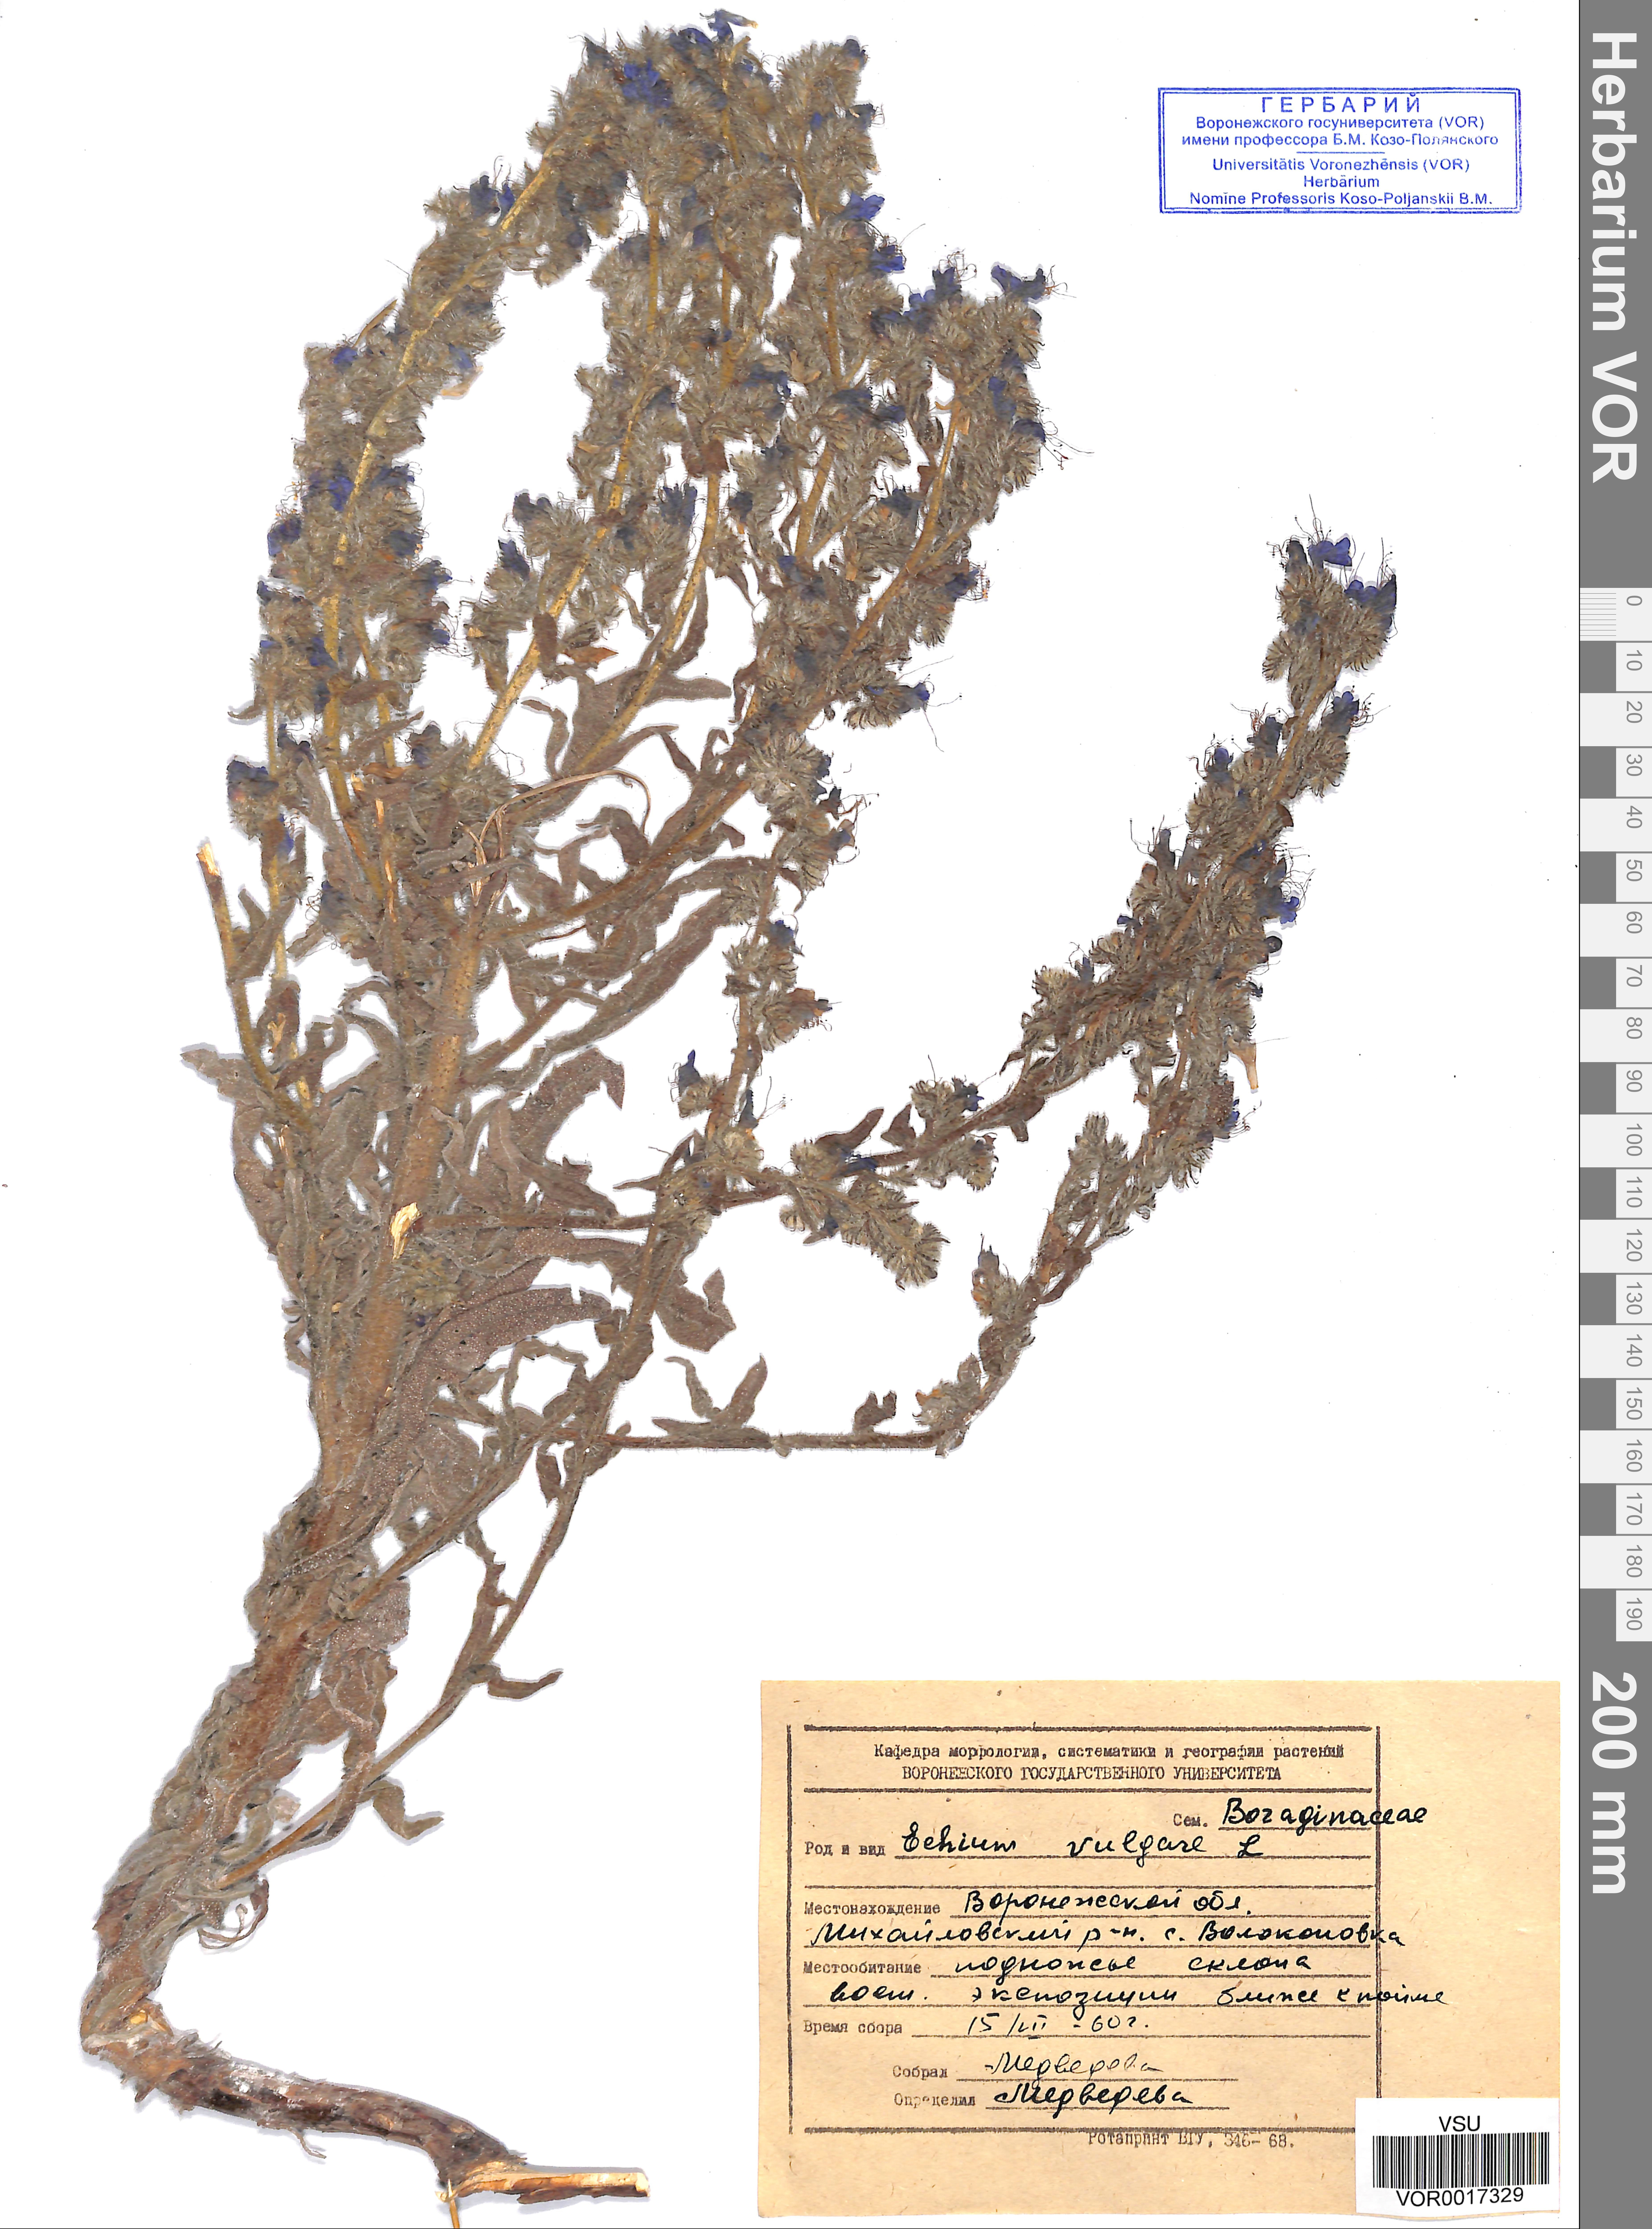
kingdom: Plantae
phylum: Tracheophyta
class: Magnoliopsida
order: Boraginales
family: Boraginaceae
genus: Echium
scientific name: Echium vulgare
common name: Common viper's bugloss
